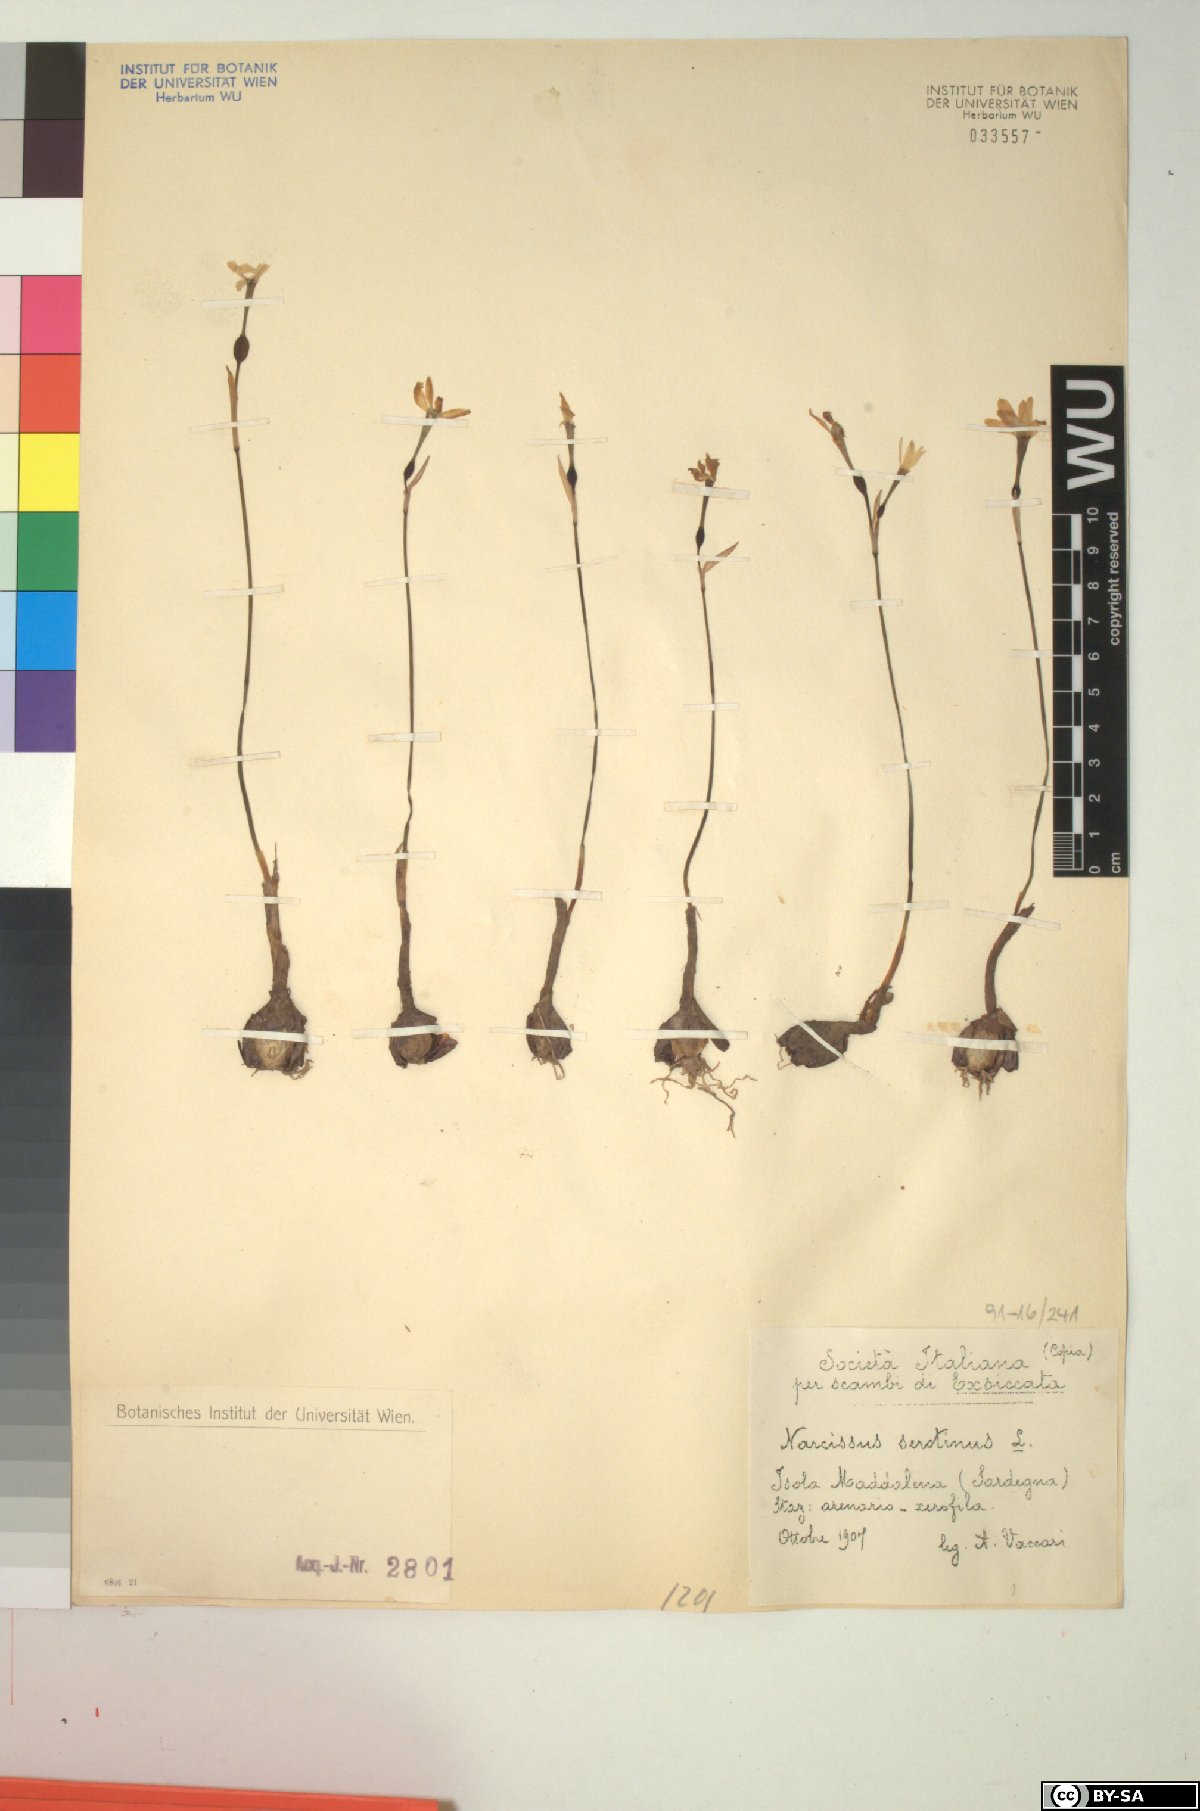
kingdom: Plantae
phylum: Tracheophyta
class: Liliopsida
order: Asparagales
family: Amaryllidaceae
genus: Narcissus
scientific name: Narcissus serotinus
